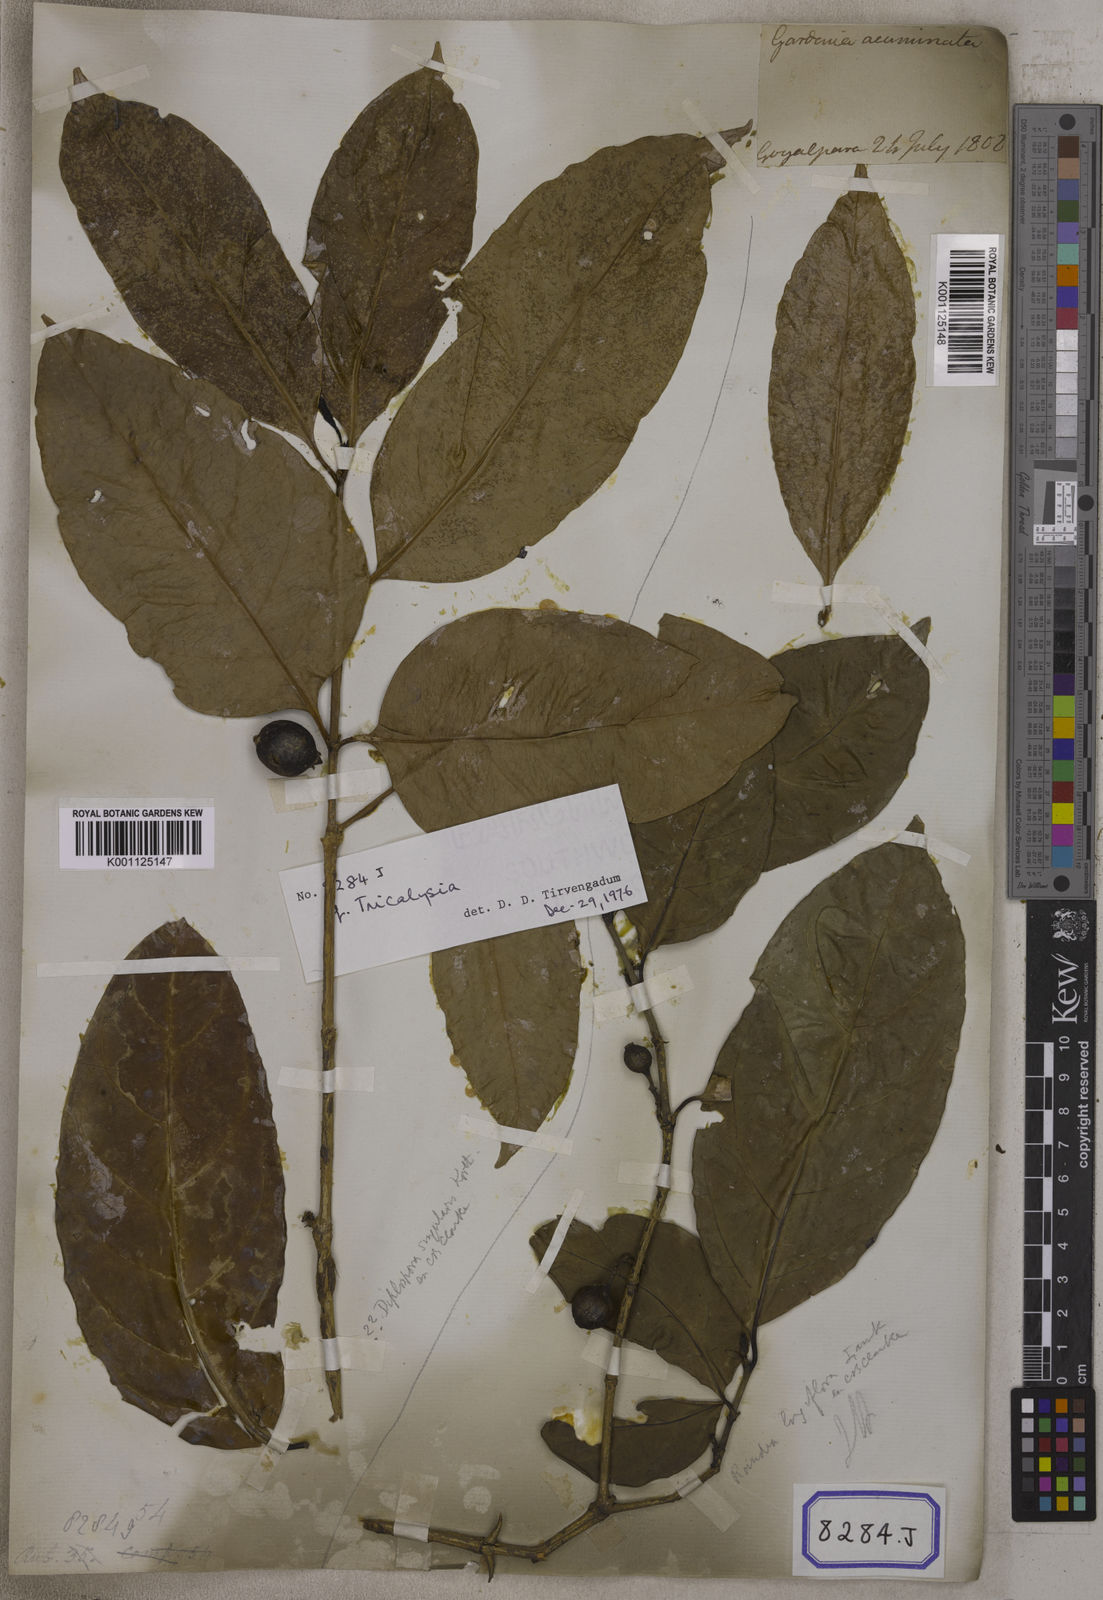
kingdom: Plantae
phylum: Tracheophyta
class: Magnoliopsida
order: Gentianales
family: Rubiaceae
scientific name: Rubiaceae
